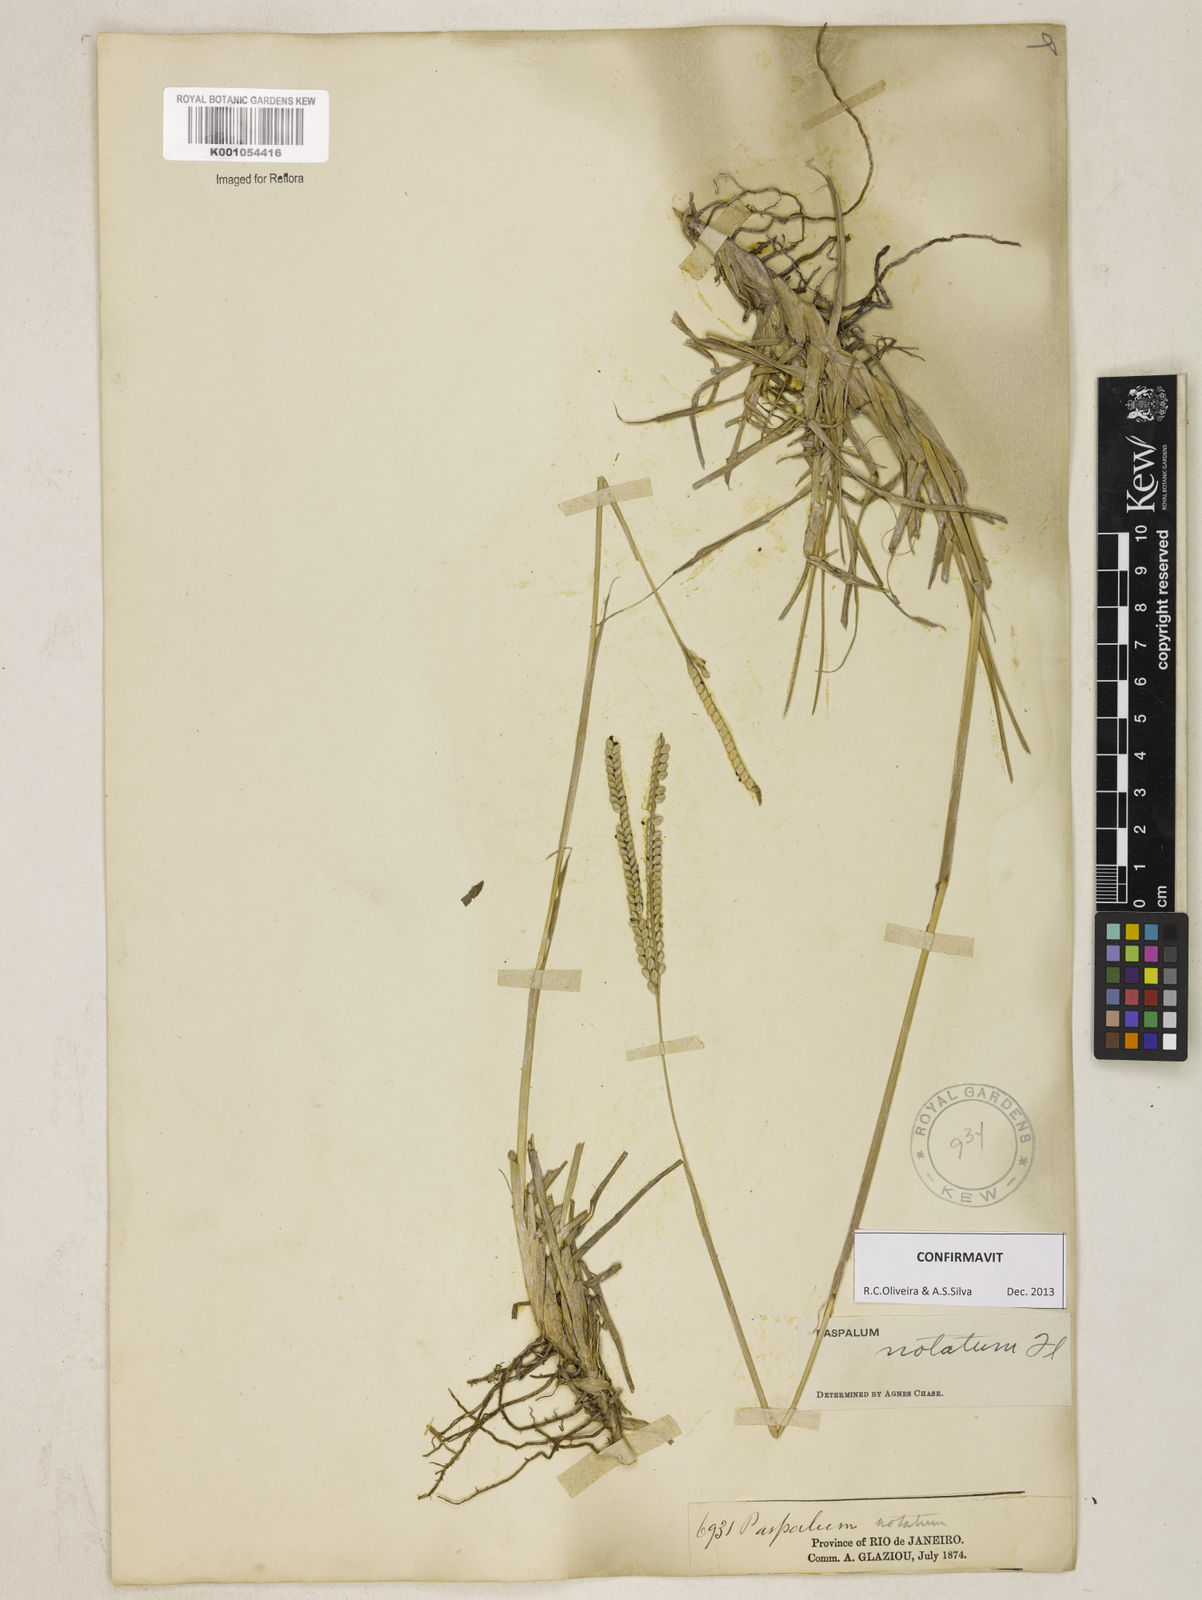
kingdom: Plantae
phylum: Tracheophyta
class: Liliopsida
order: Poales
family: Poaceae
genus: Paspalum
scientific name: Paspalum
